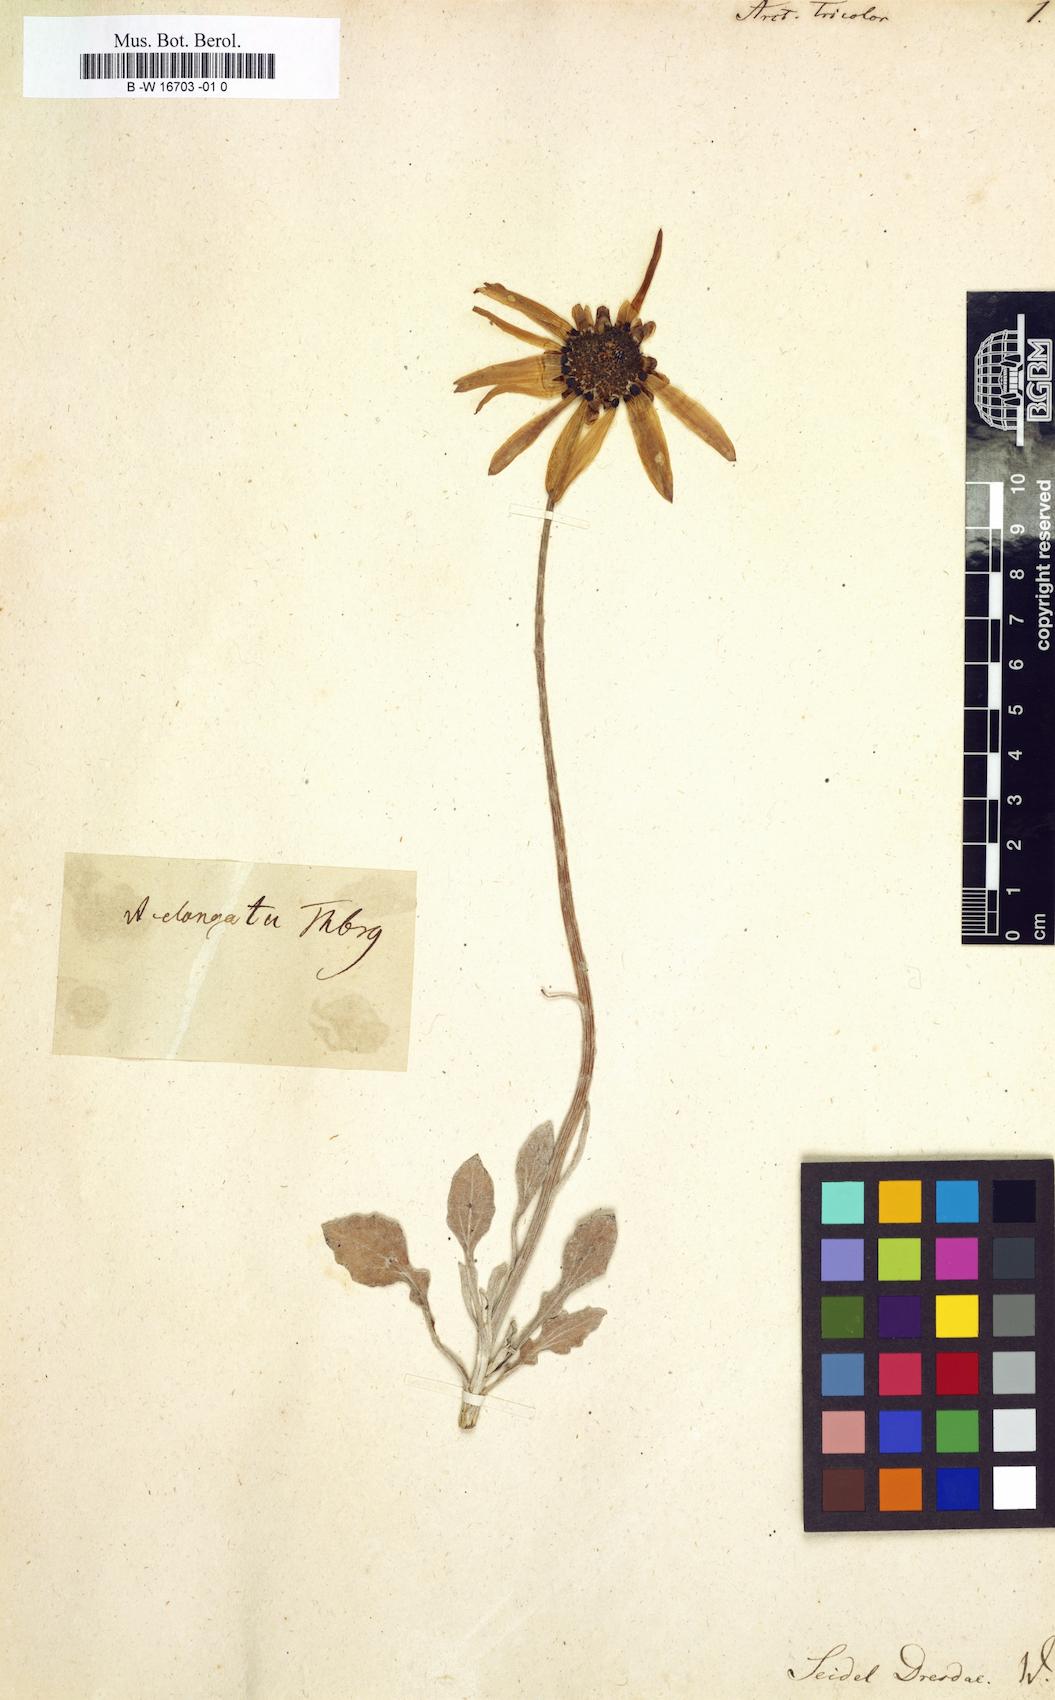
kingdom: Plantae
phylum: Tracheophyta
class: Magnoliopsida
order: Asterales
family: Asteraceae
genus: Arctotis
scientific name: Arctotis tricolor
